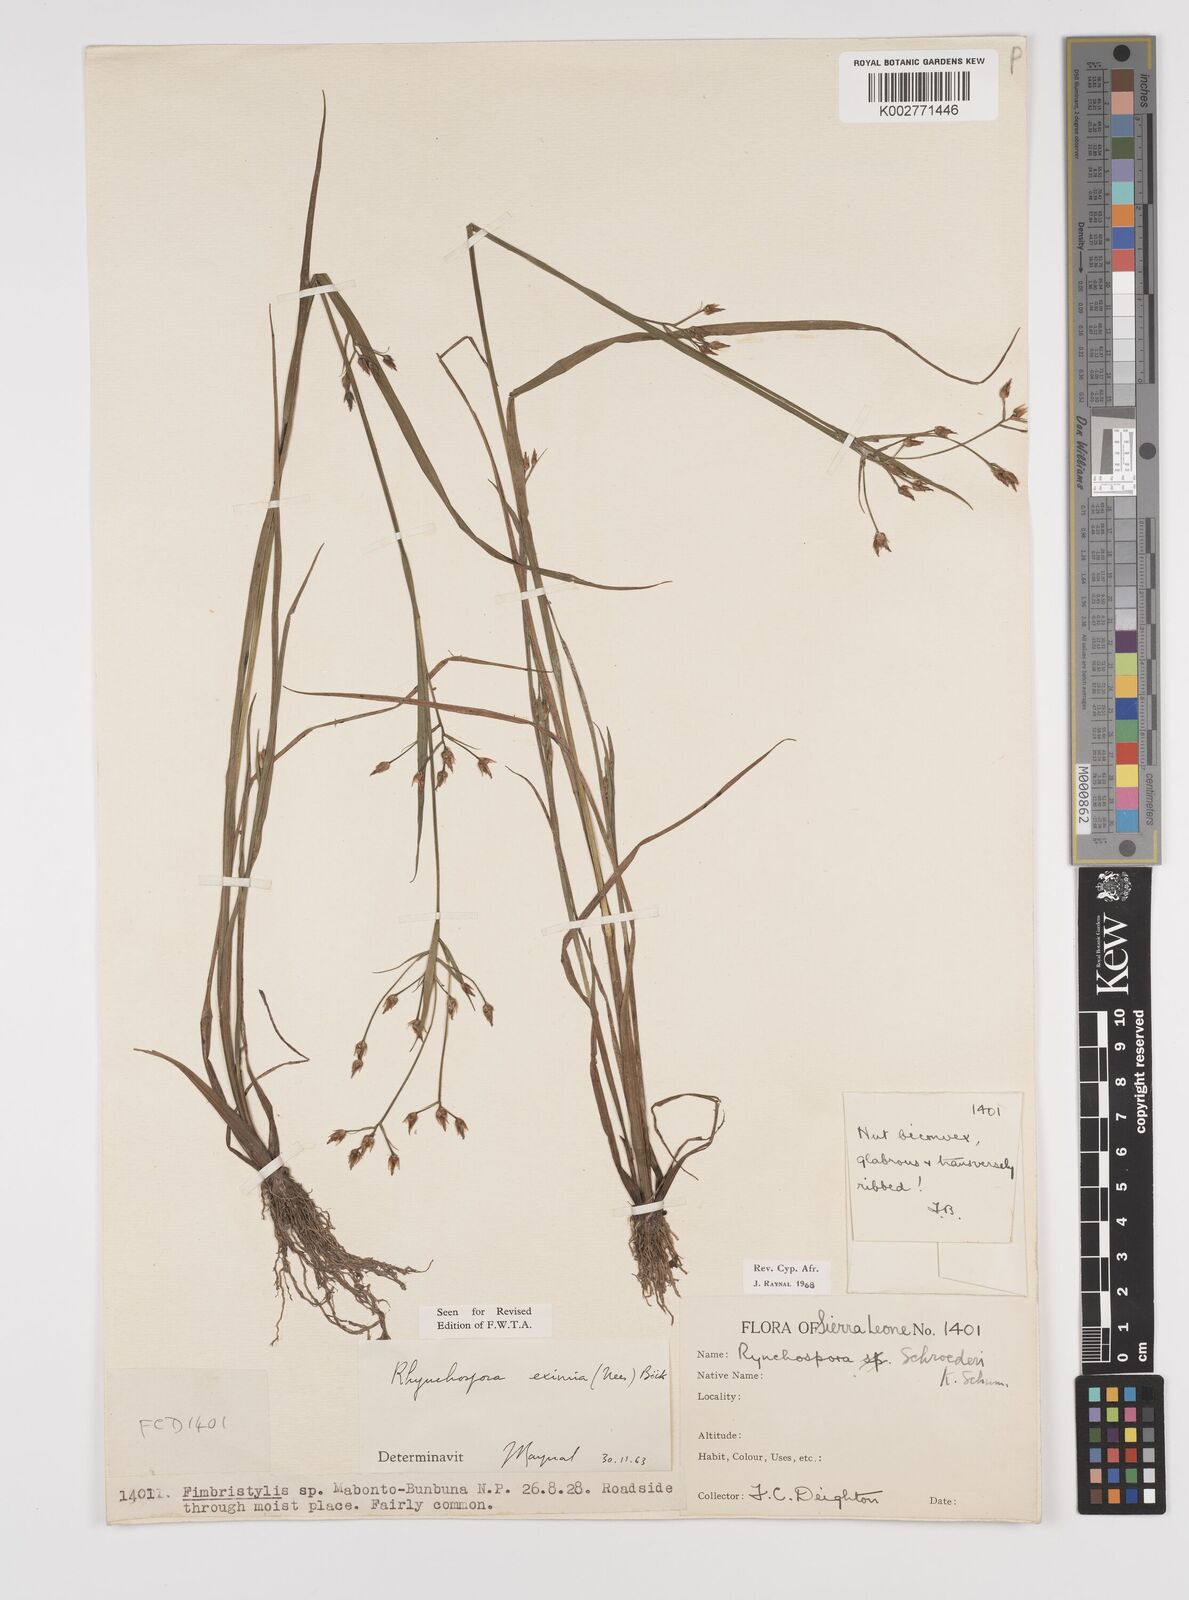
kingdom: Plantae
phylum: Tracheophyta
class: Liliopsida
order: Poales
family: Cyperaceae
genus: Rhynchospora
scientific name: Rhynchospora eximia
